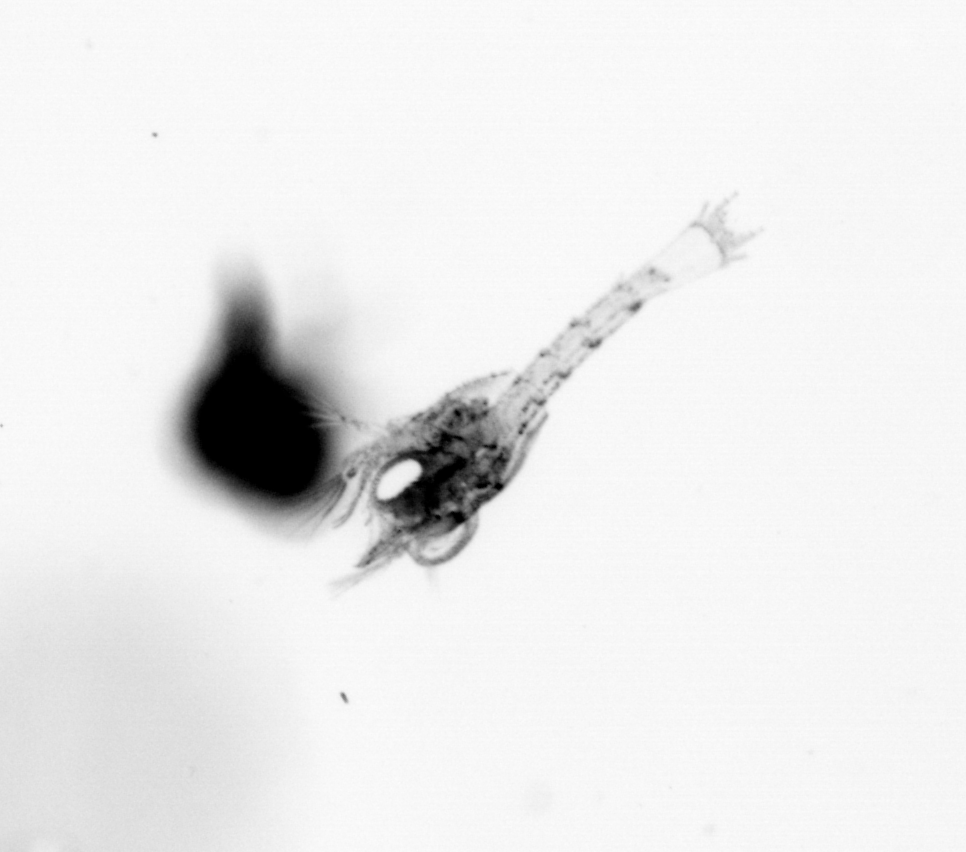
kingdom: Animalia
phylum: Arthropoda
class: Malacostraca
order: Decapoda
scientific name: Decapoda
